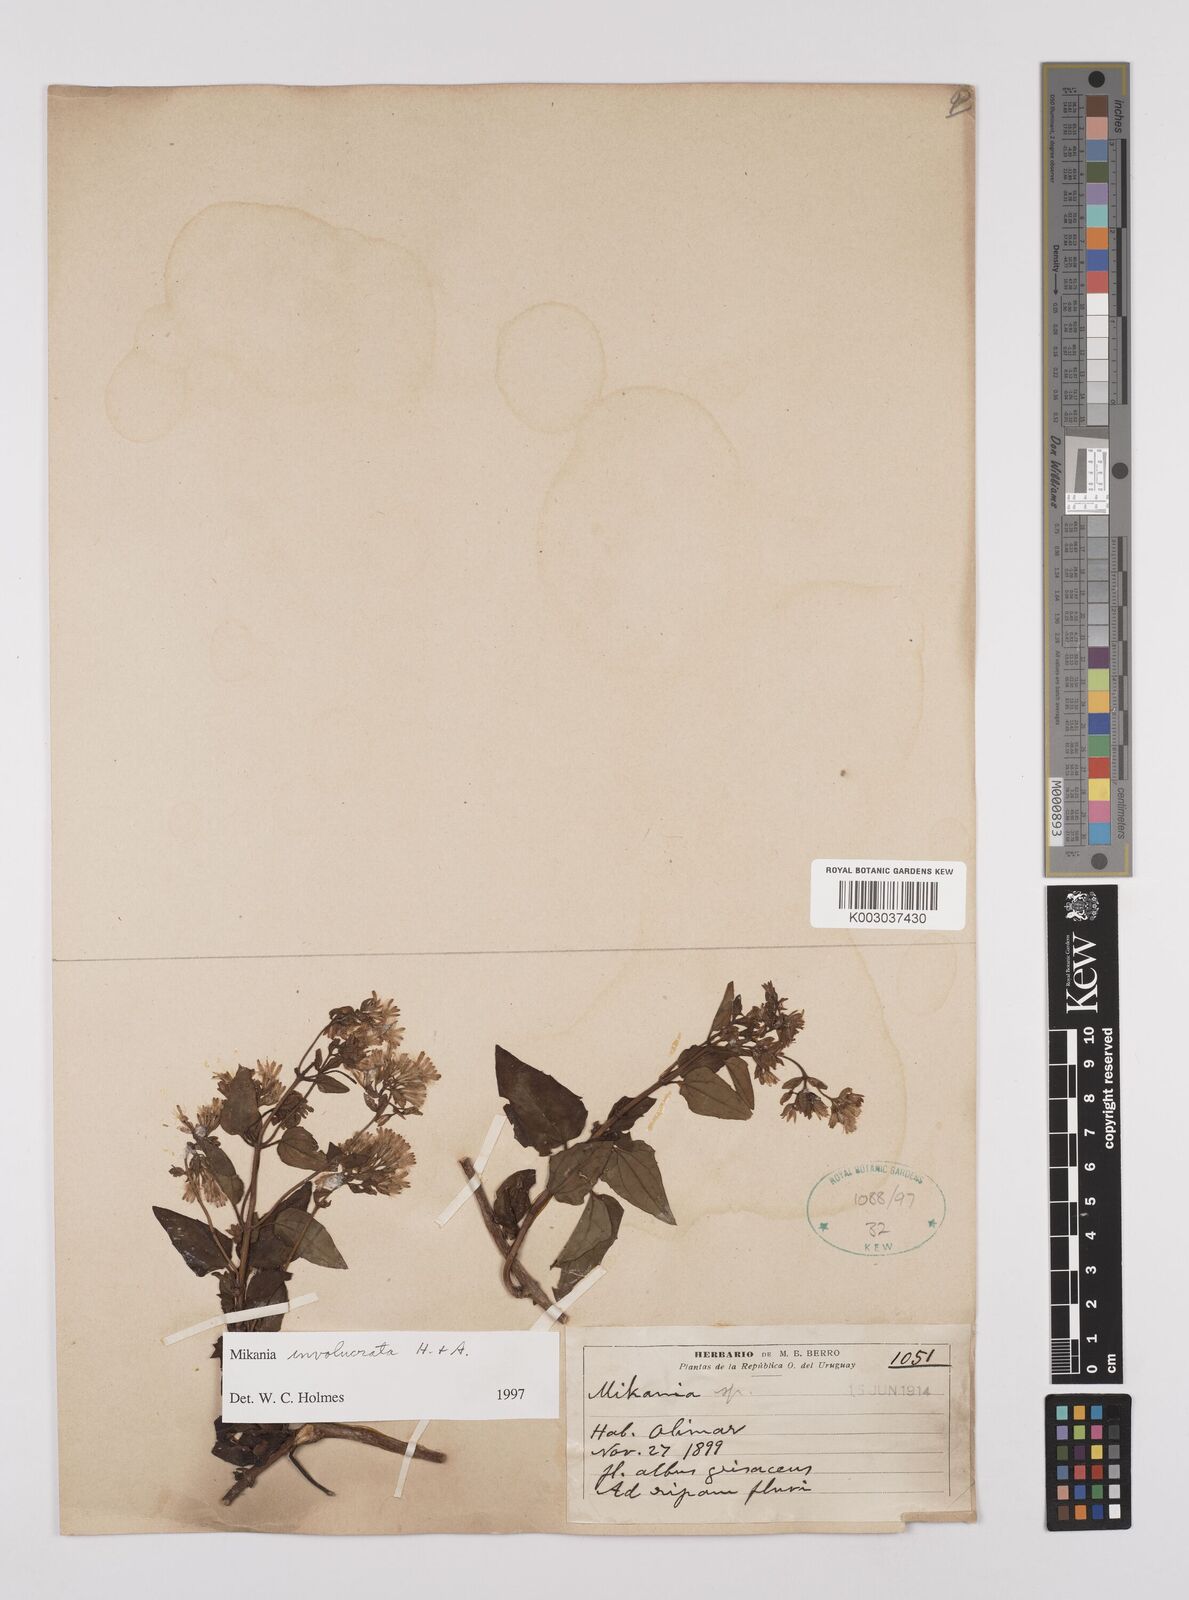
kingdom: Plantae
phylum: Tracheophyta
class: Magnoliopsida
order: Asterales
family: Asteraceae
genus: Mikania
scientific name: Mikania involucrata
